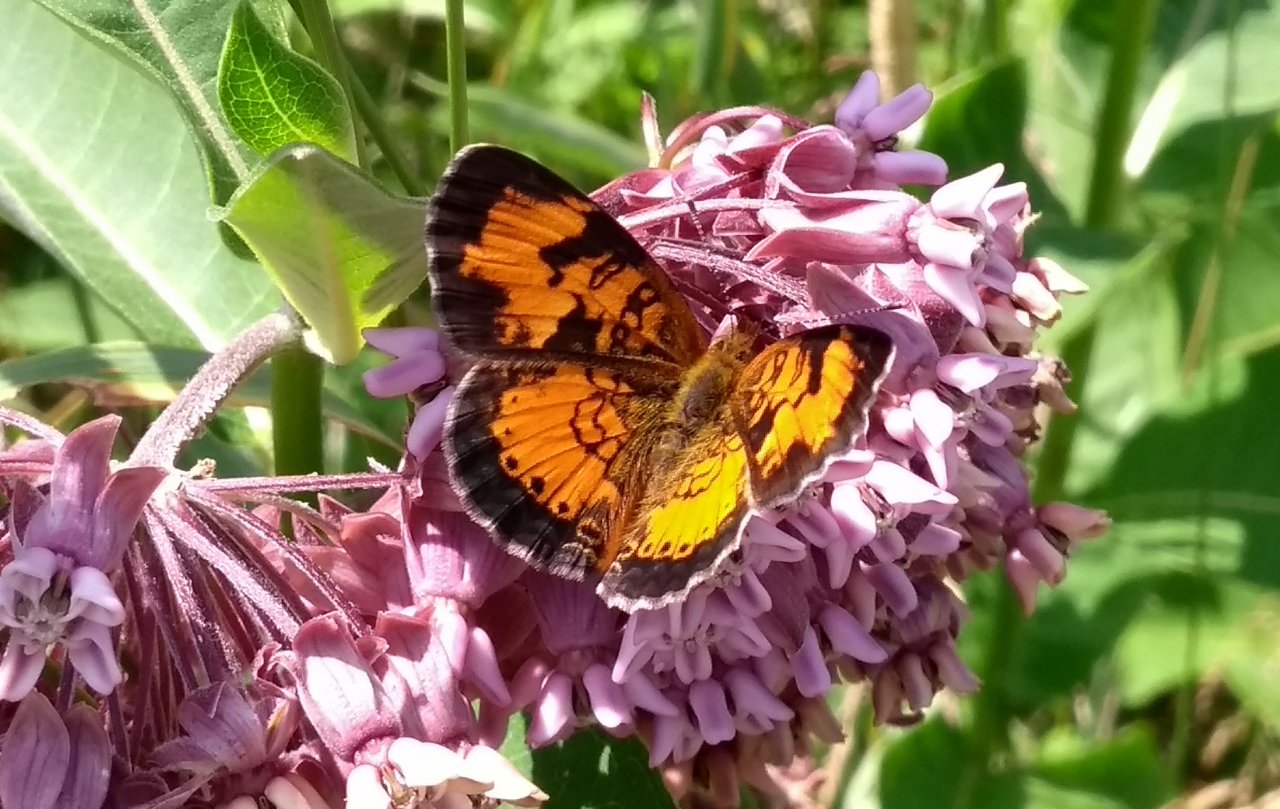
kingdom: Animalia
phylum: Arthropoda
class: Insecta
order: Lepidoptera
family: Nymphalidae
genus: Phyciodes
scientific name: Phyciodes tharos
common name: Northern Crescent
